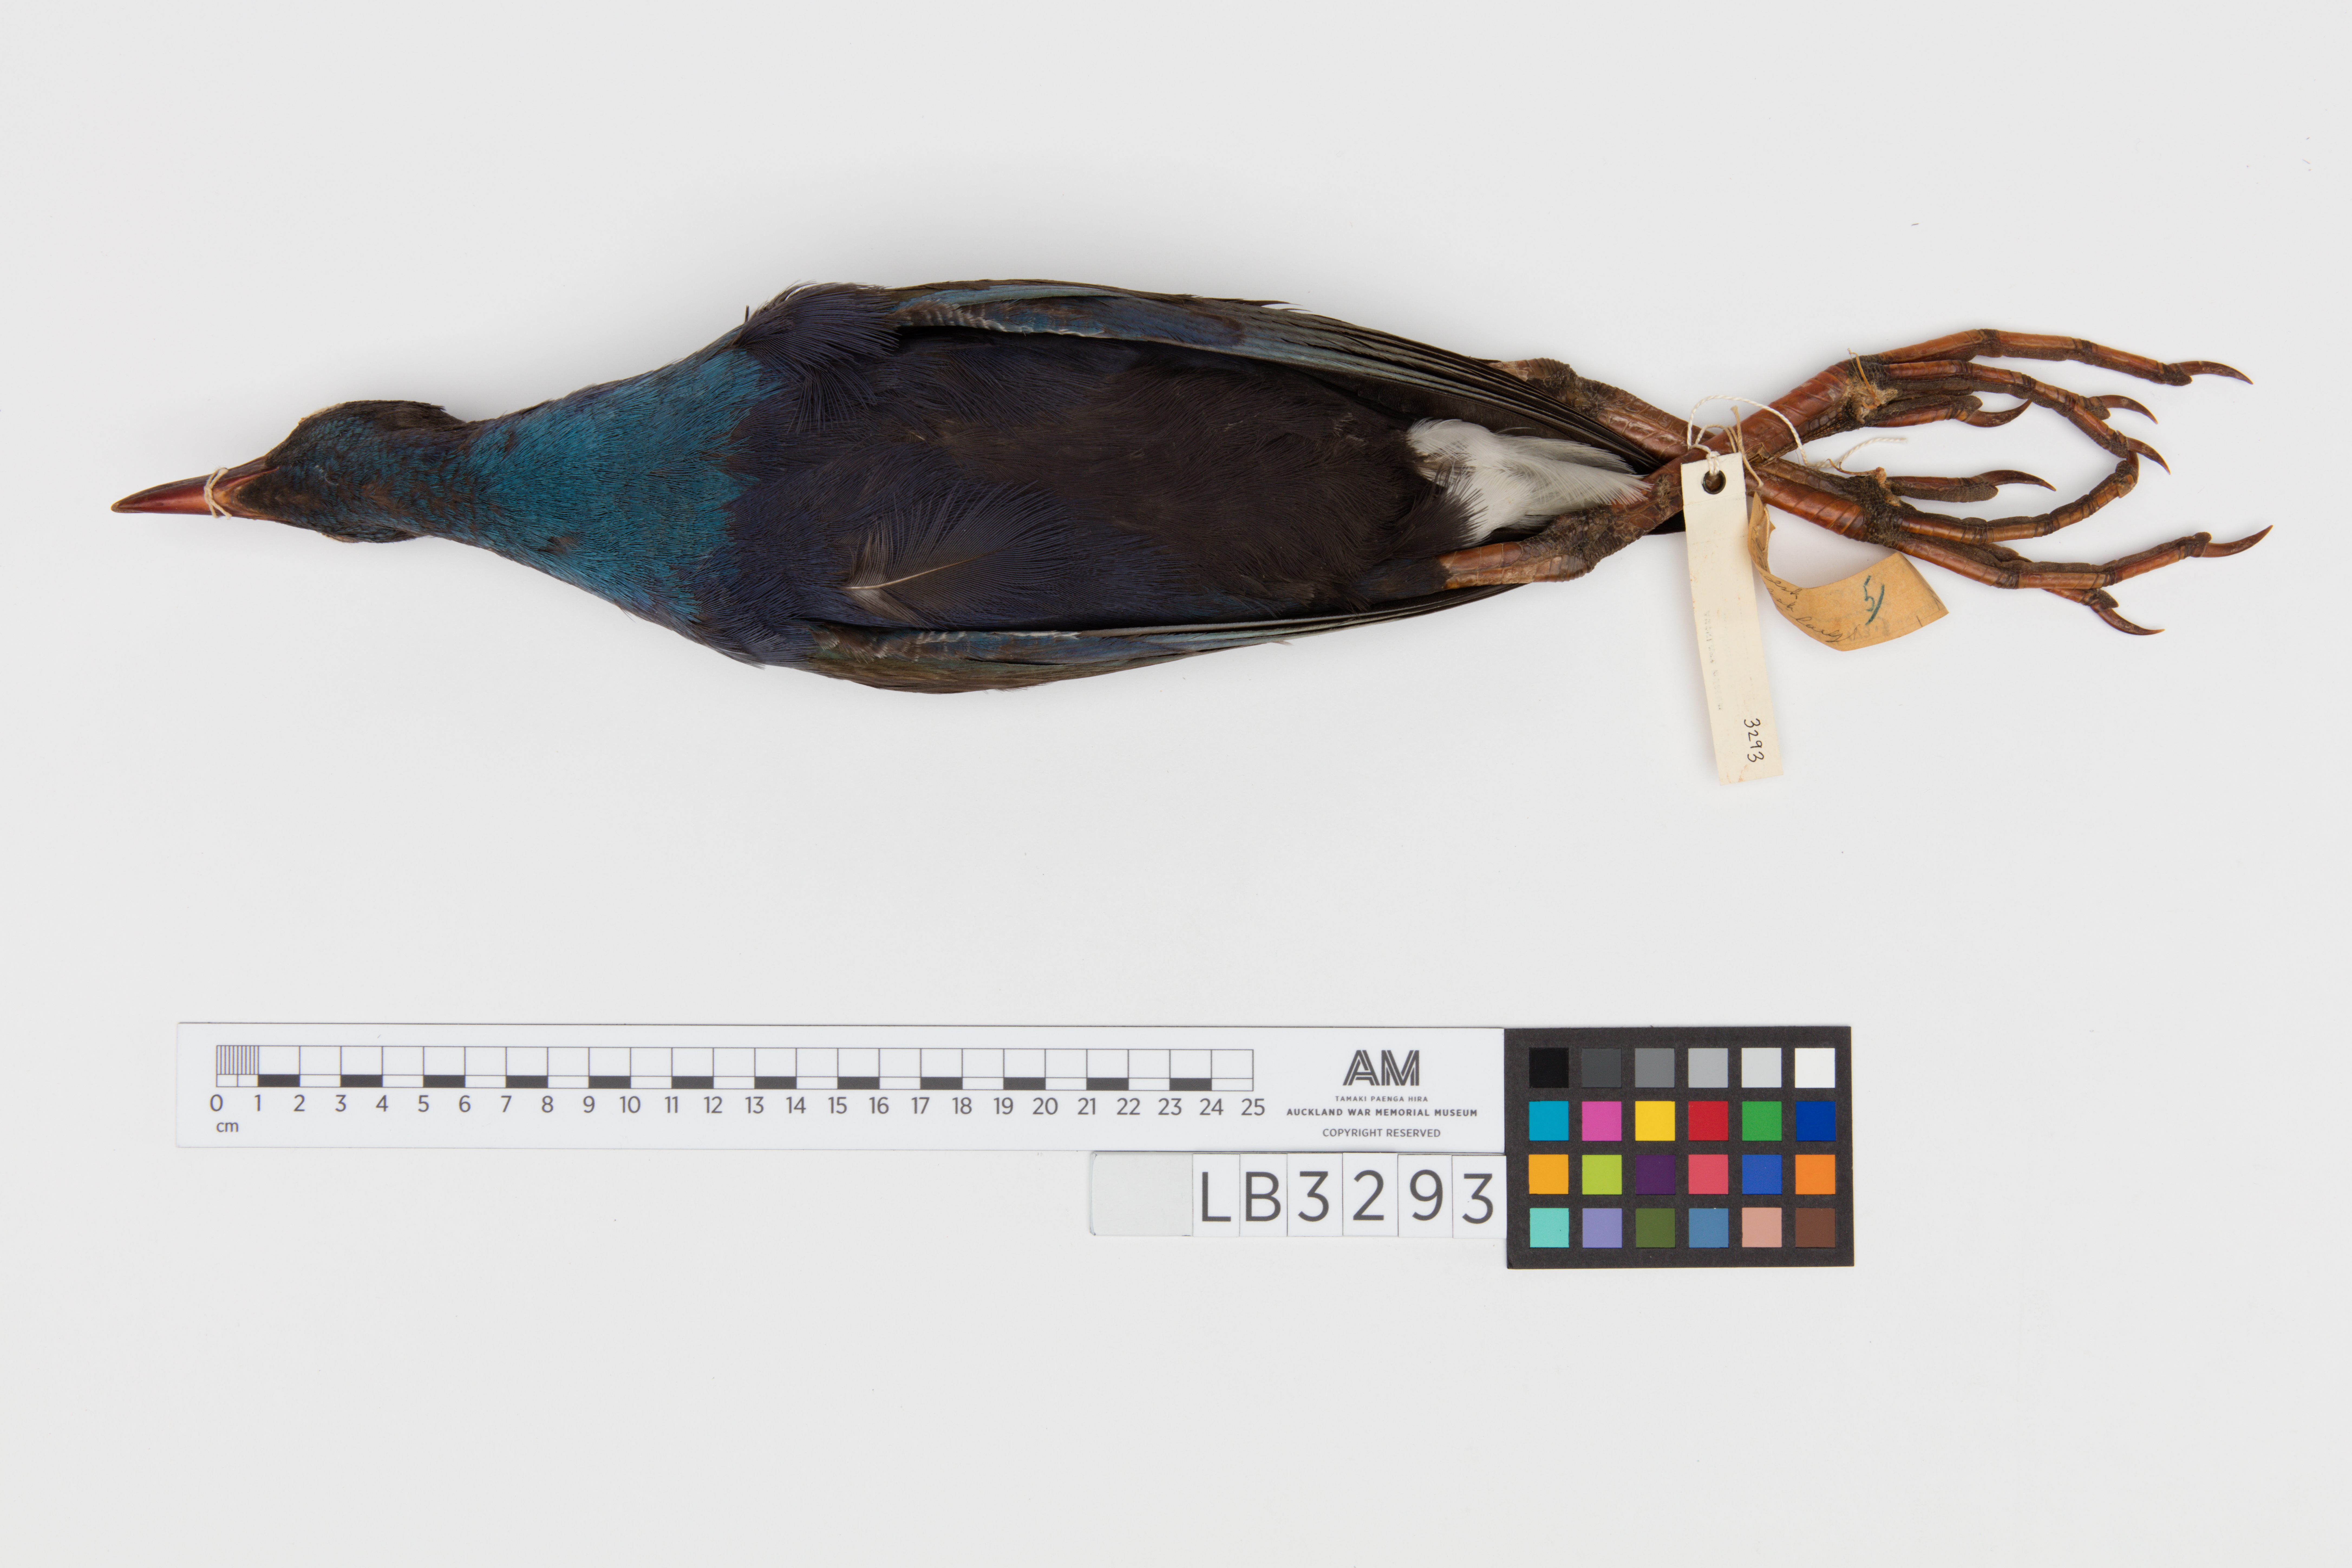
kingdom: Animalia
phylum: Chordata
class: Aves
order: Gruiformes
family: Rallidae
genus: Porphyrio
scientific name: Porphyrio melanotus
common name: Australasian swamphen
